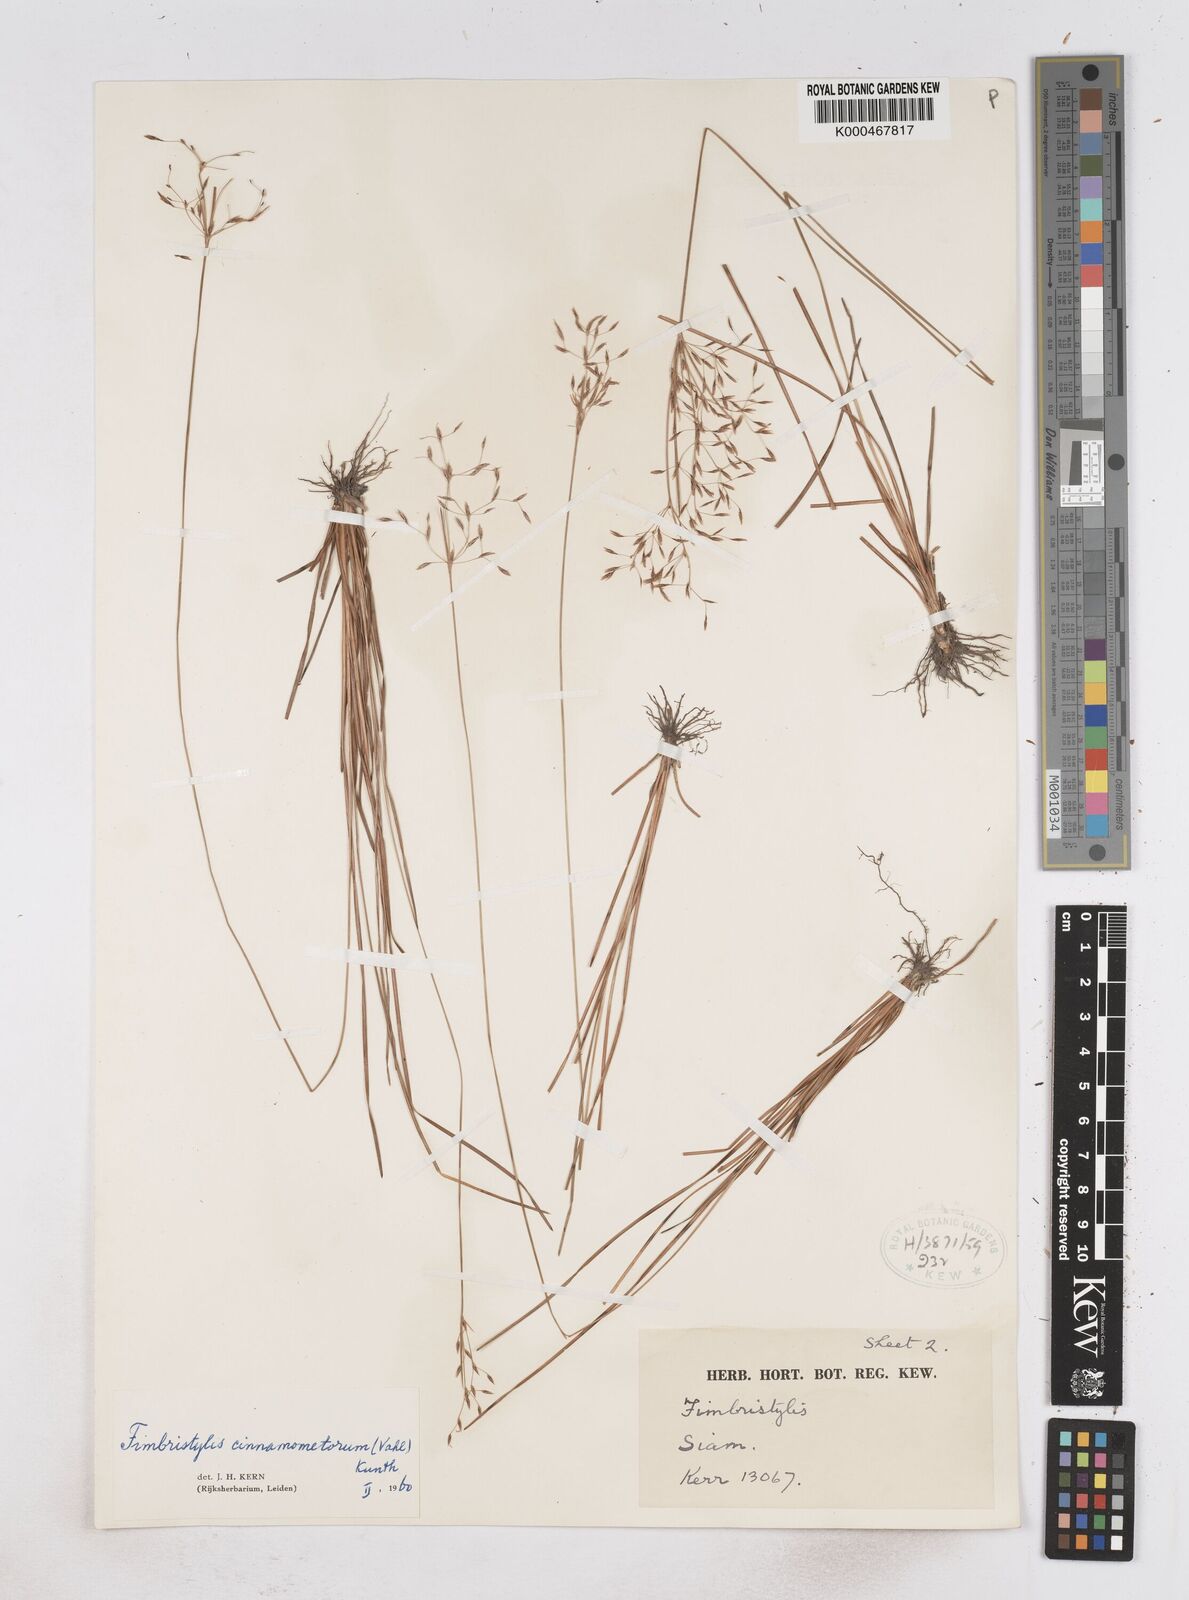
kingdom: Plantae
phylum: Tracheophyta
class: Liliopsida
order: Poales
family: Cyperaceae
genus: Fimbristylis
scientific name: Fimbristylis cinnamometorum
